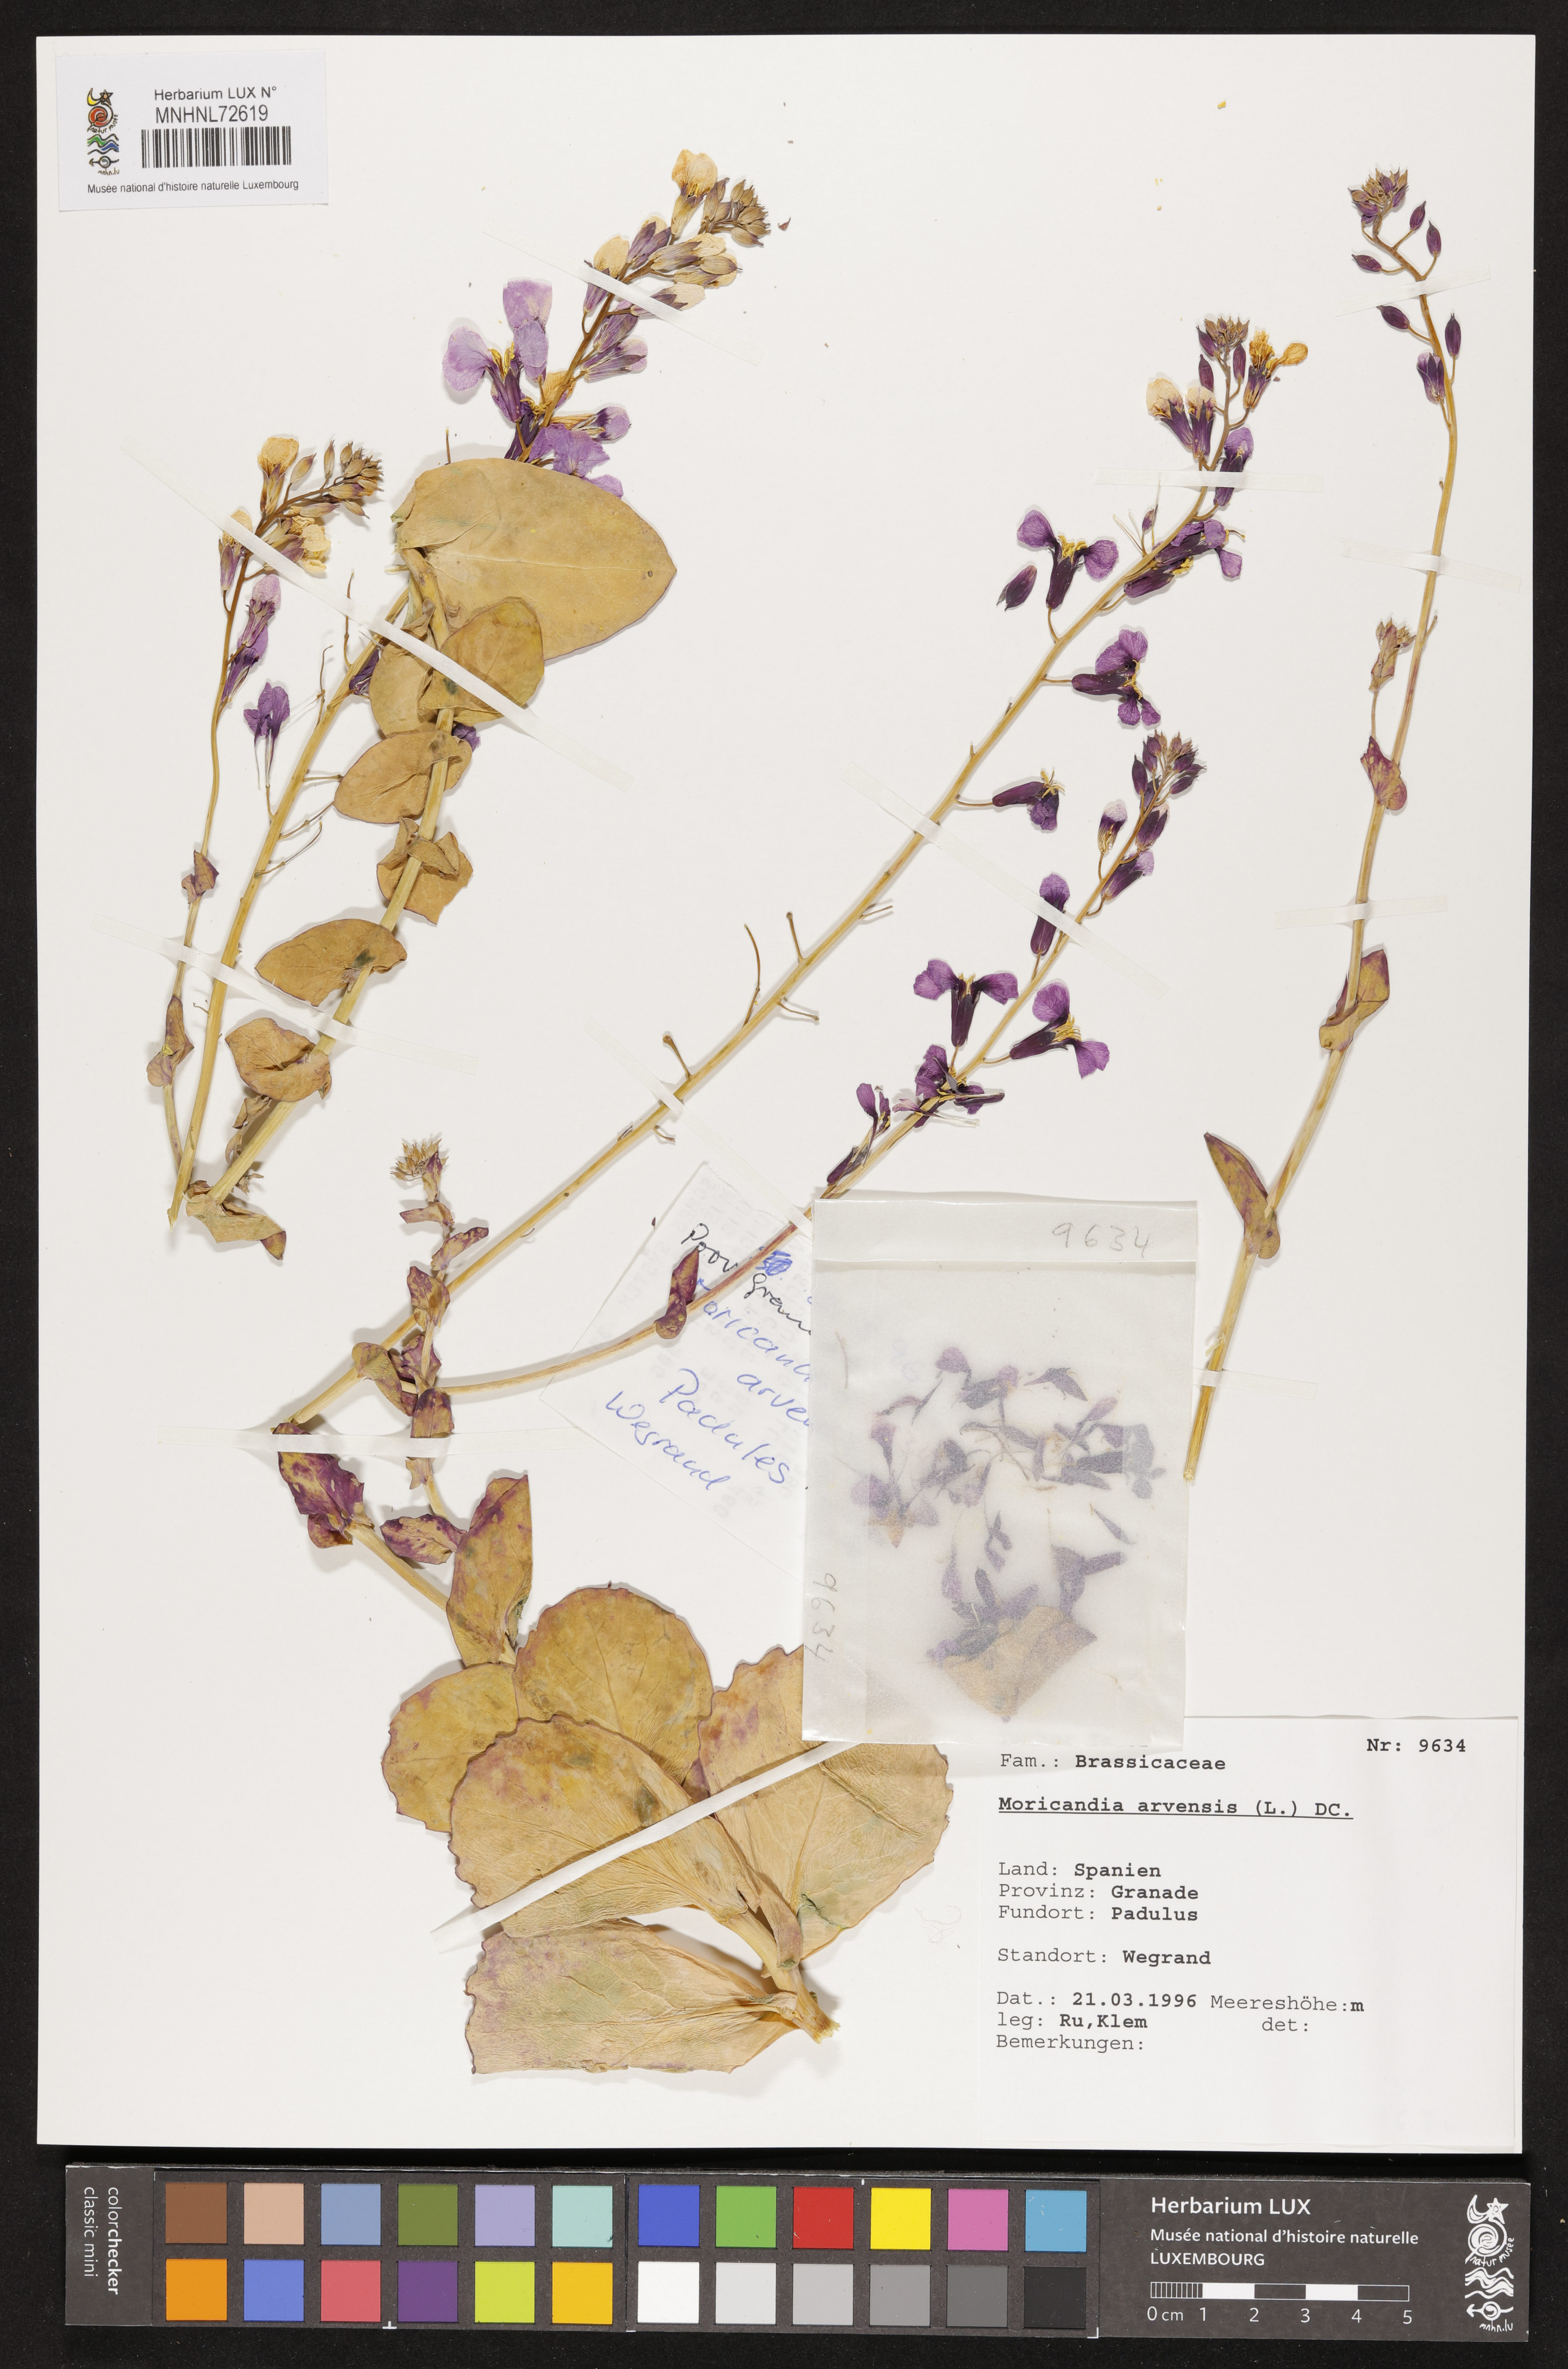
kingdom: Plantae
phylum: Tracheophyta
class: Magnoliopsida
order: Brassicales
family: Brassicaceae
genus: Moricandia
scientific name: Moricandia arvensis
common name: Purple mistress
